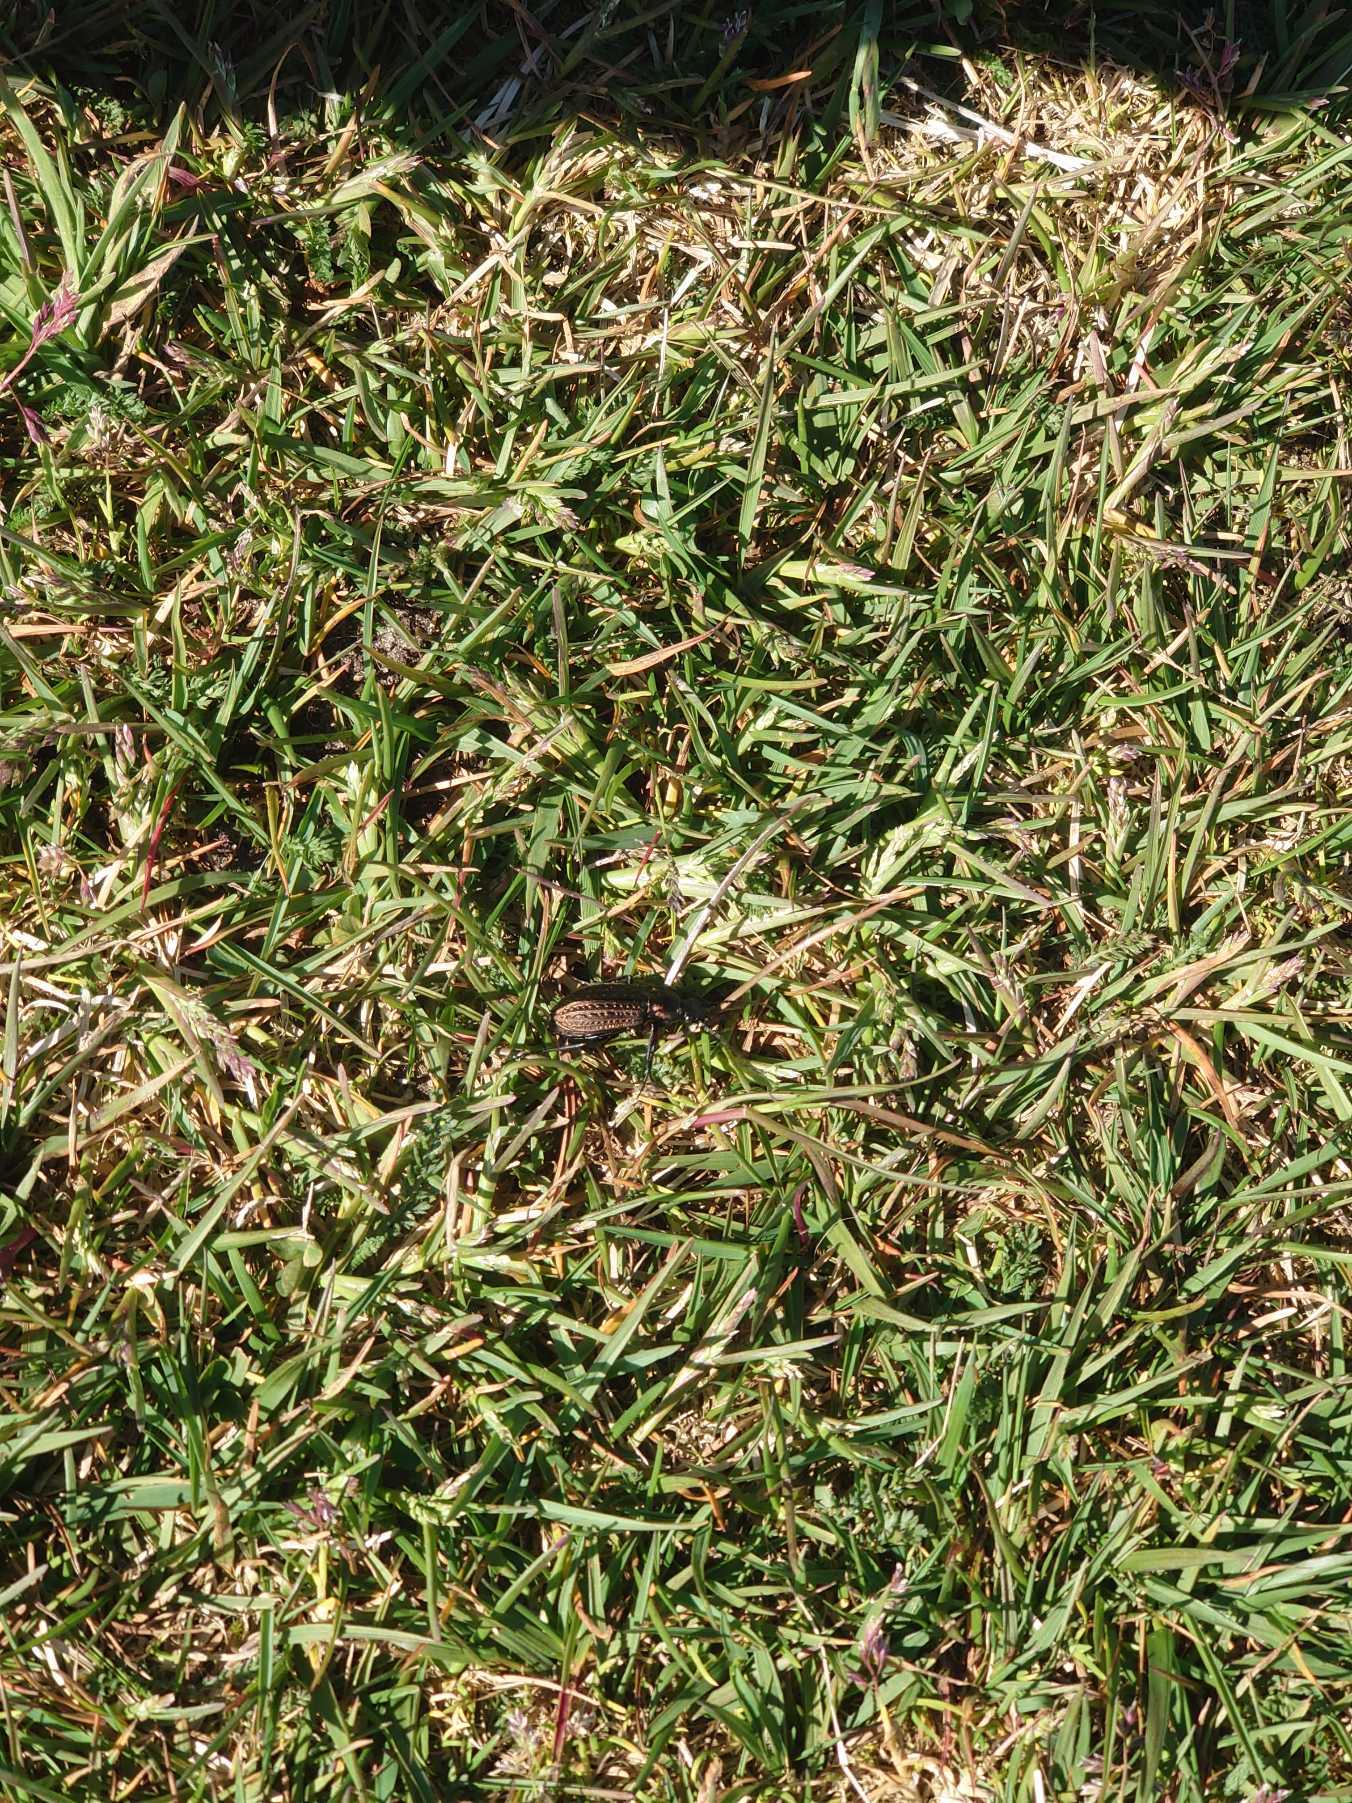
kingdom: Animalia
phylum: Arthropoda
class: Insecta
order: Coleoptera
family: Carabidae
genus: Carabus
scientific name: Carabus granulatus
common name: Kornet løber
